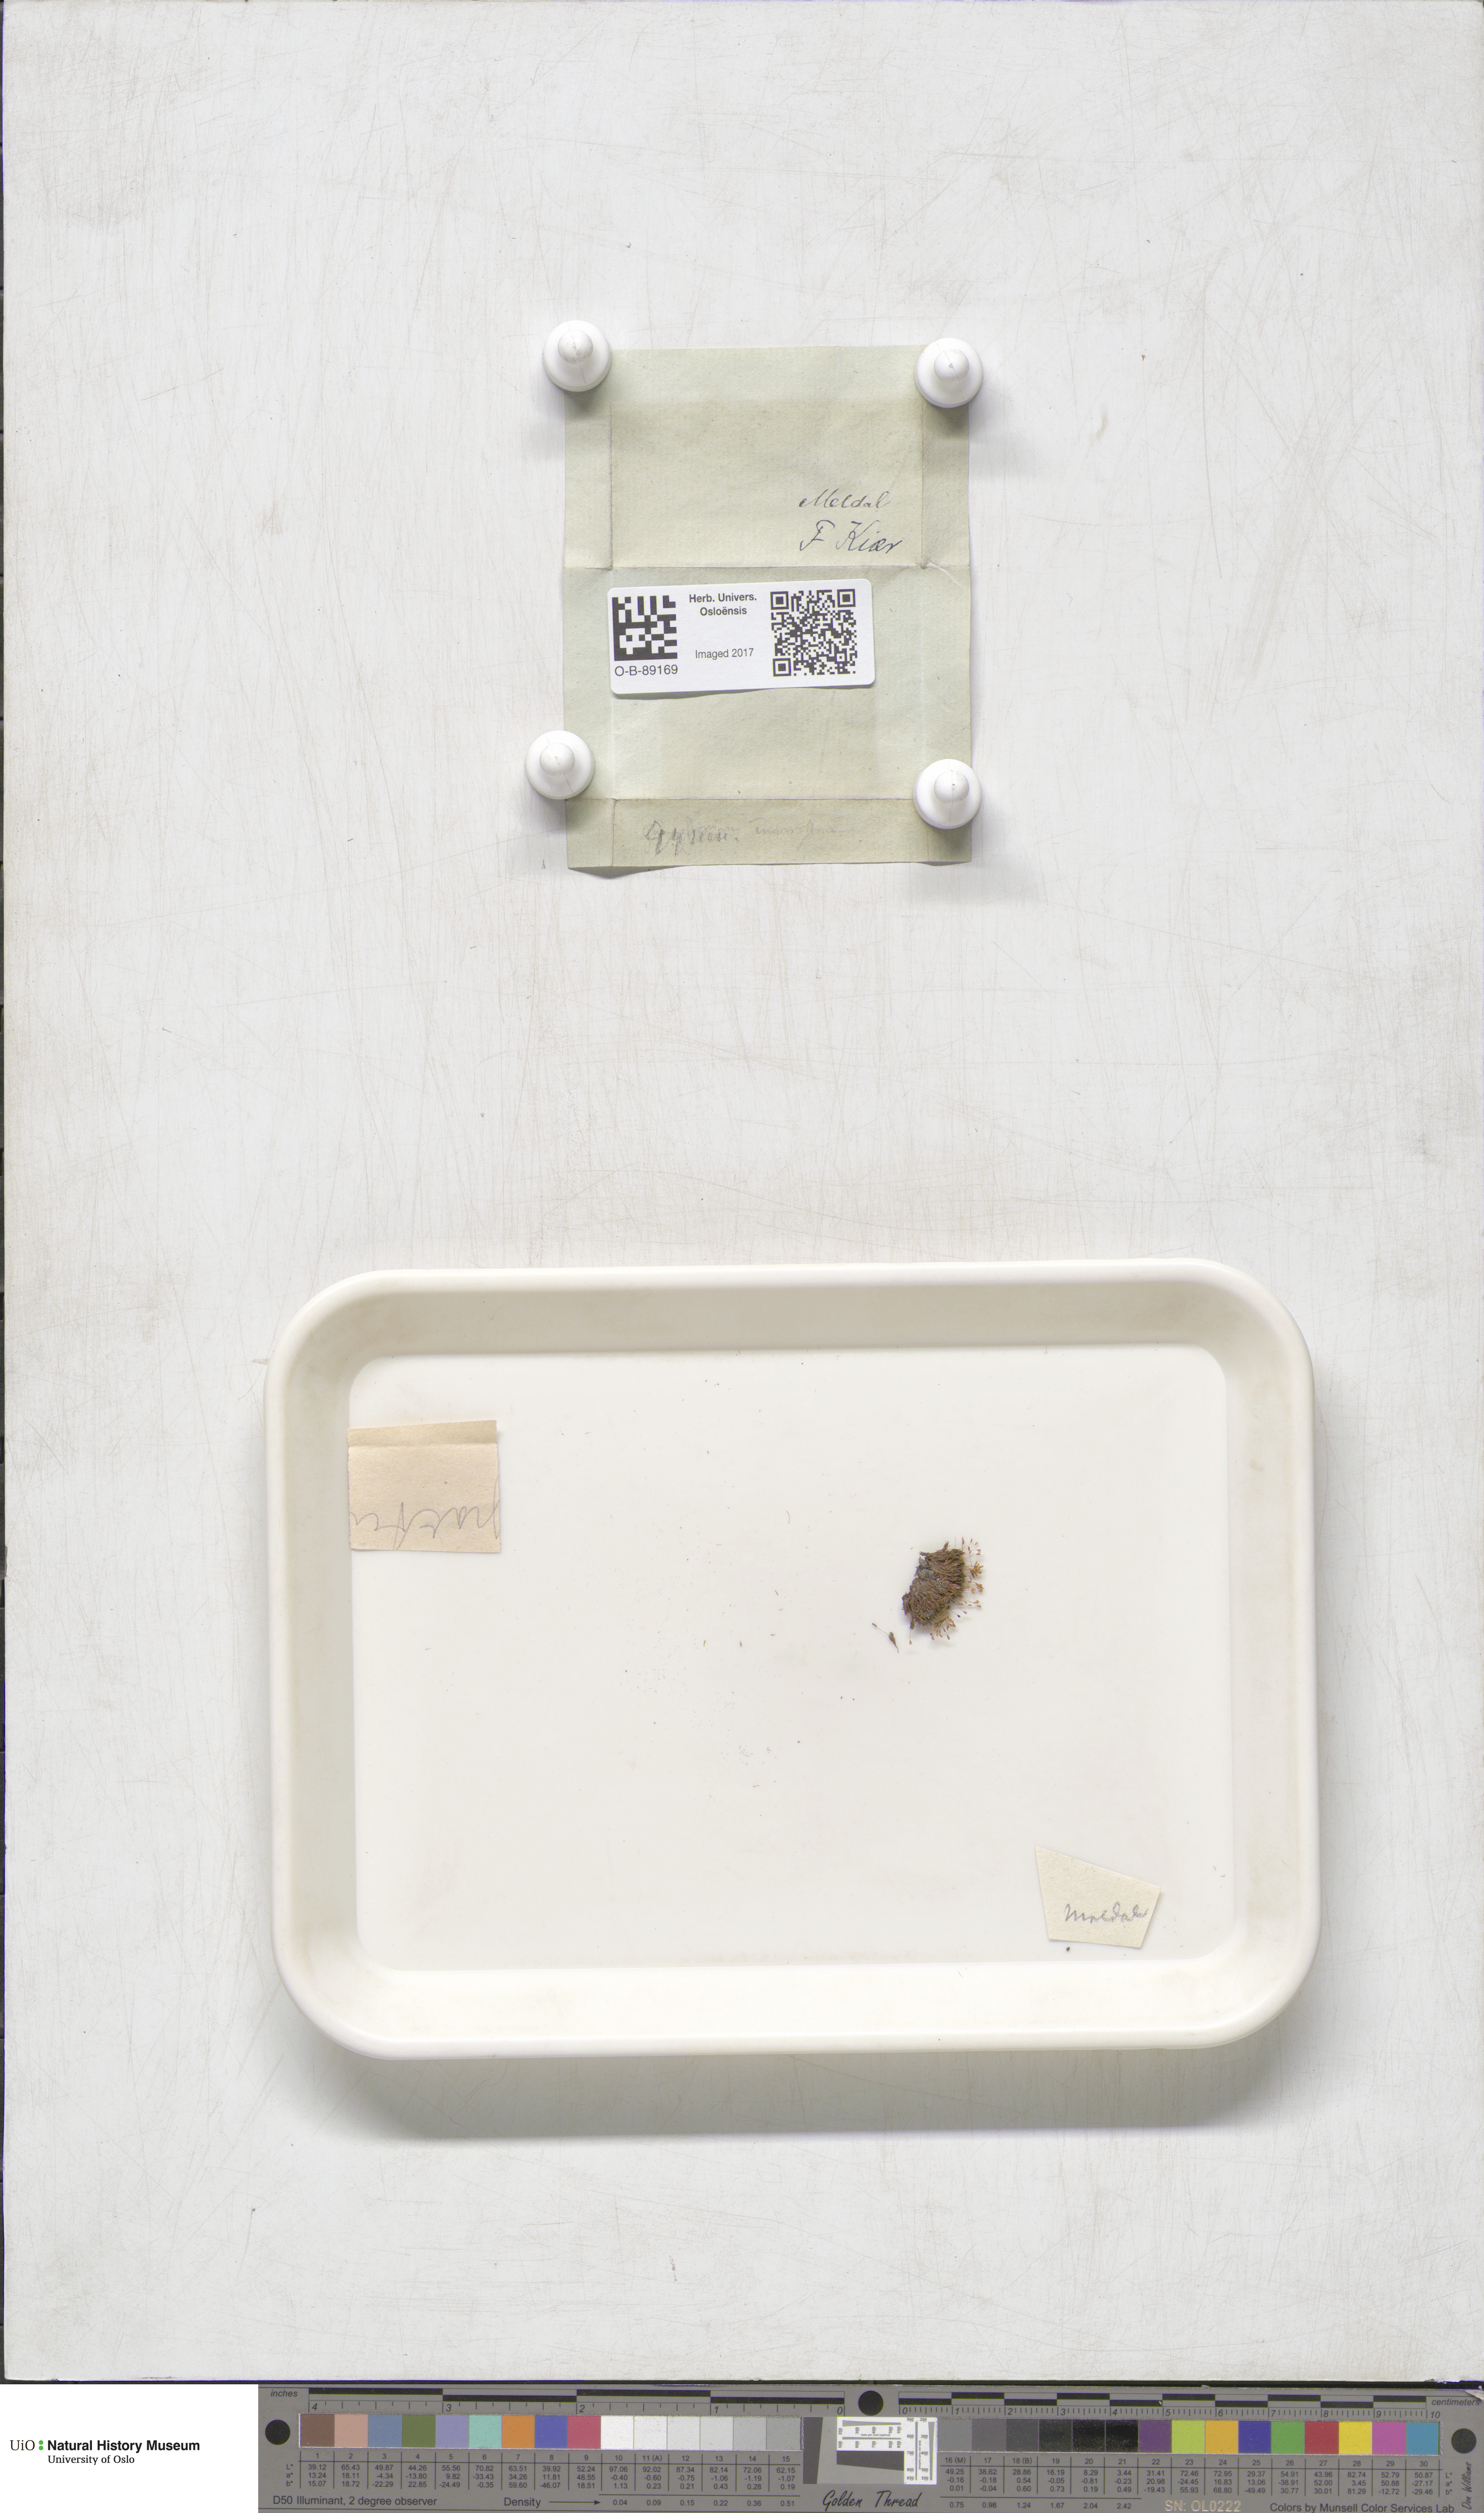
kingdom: Plantae
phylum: Bryophyta
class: Bryopsida
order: Pottiales
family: Pottiaceae
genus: Gymnostomum
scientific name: Gymnostomum aeruginosum
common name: Verdigris tufa-moss
